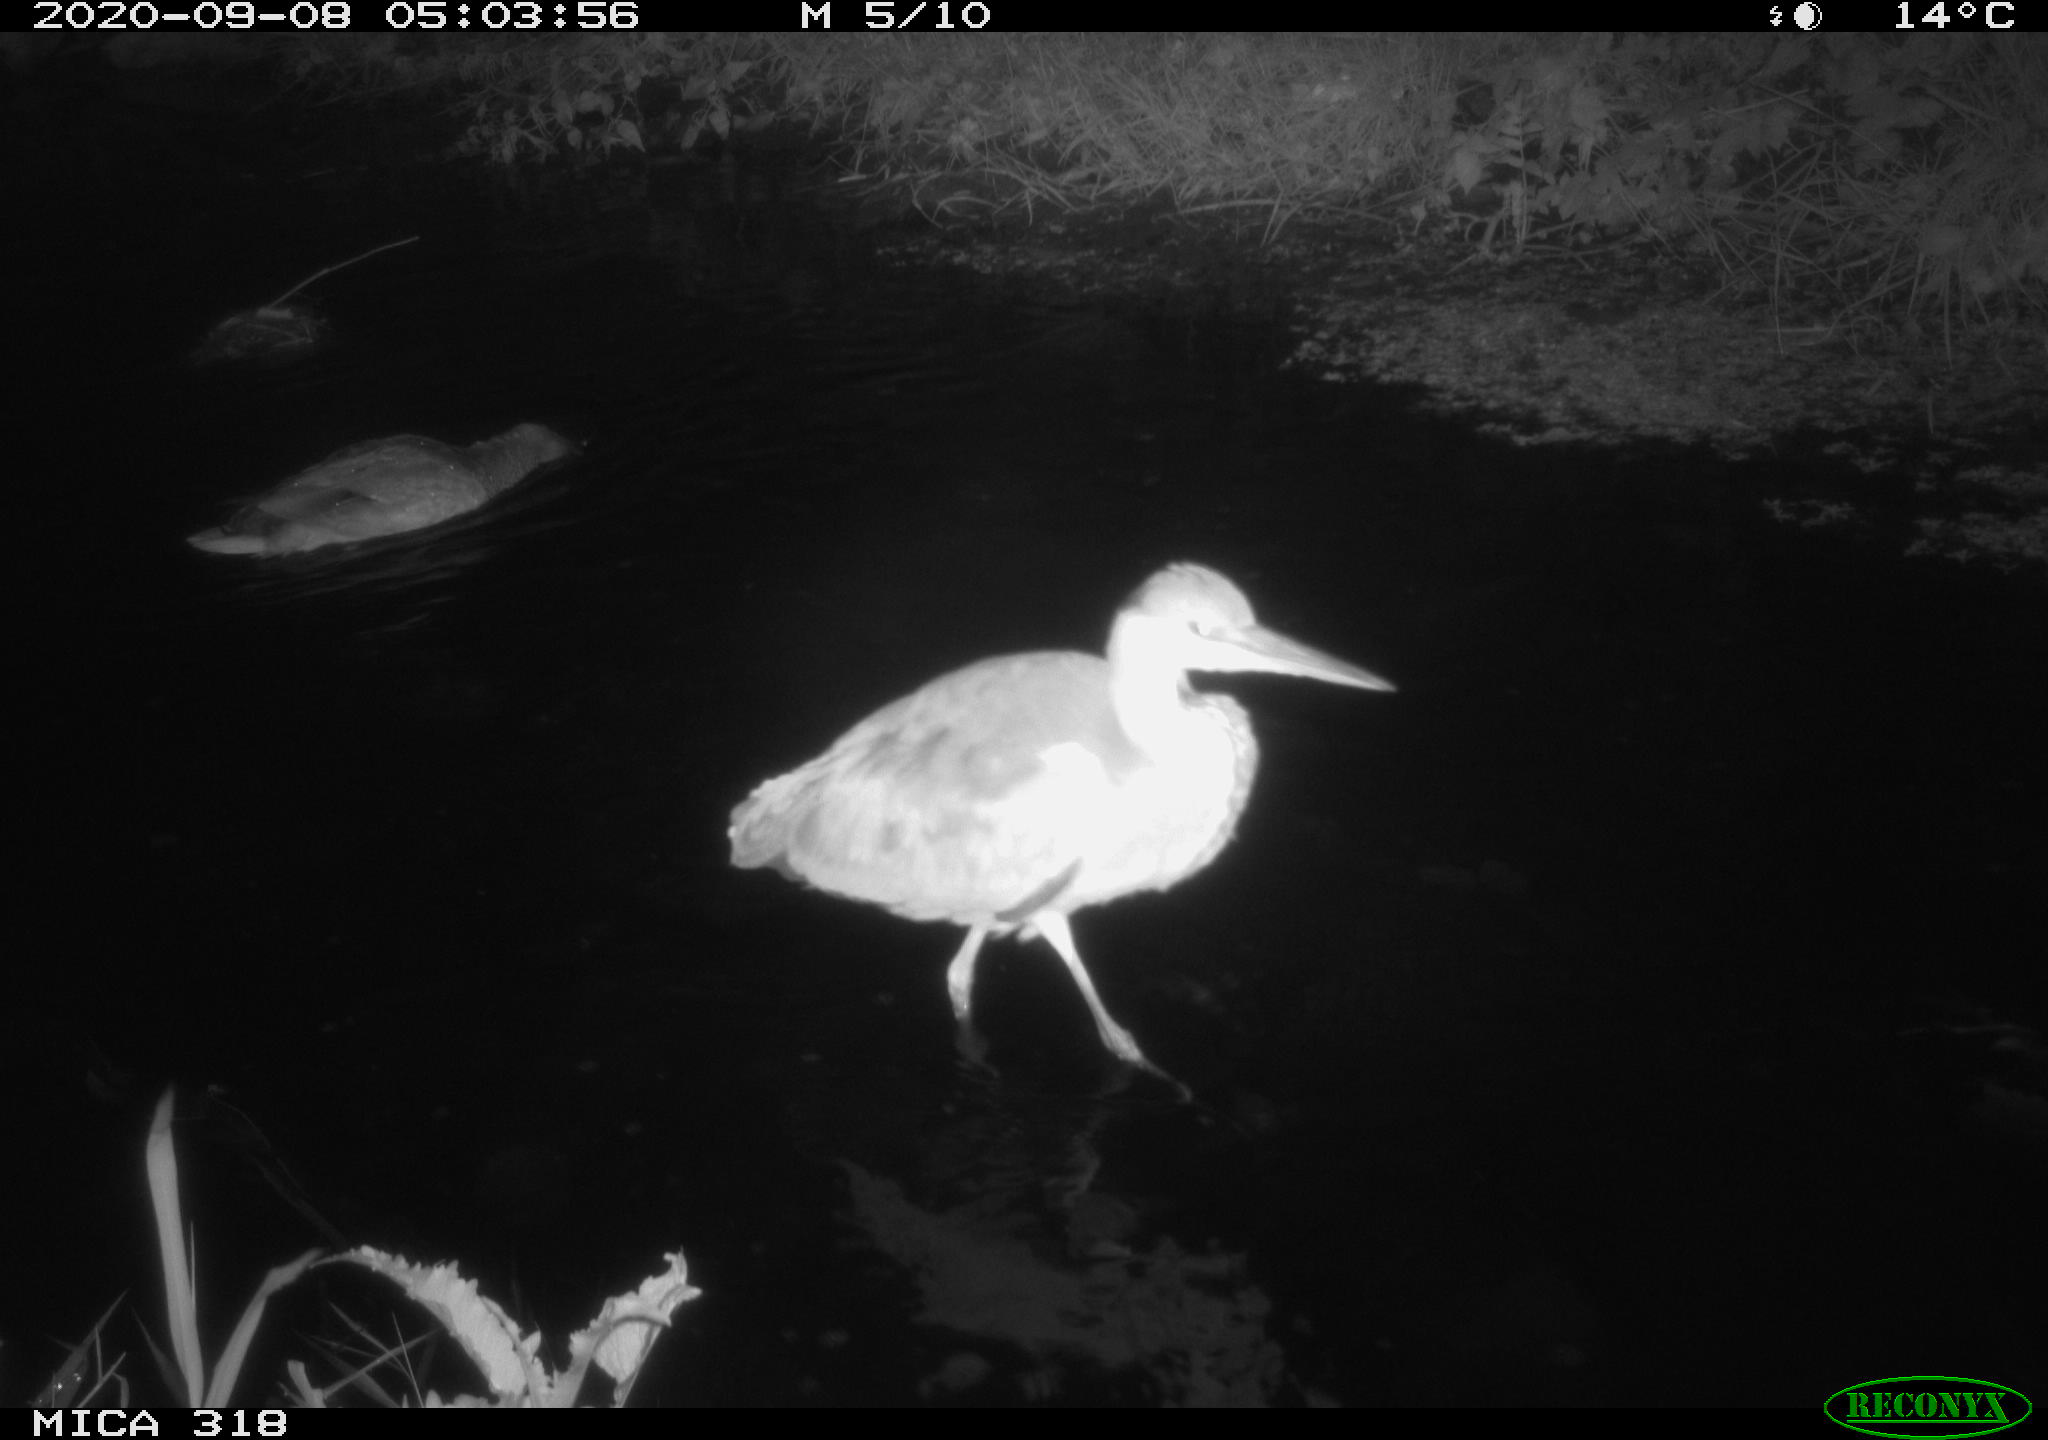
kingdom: Animalia
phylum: Chordata
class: Aves
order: Pelecaniformes
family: Ardeidae
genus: Ardea
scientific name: Ardea
